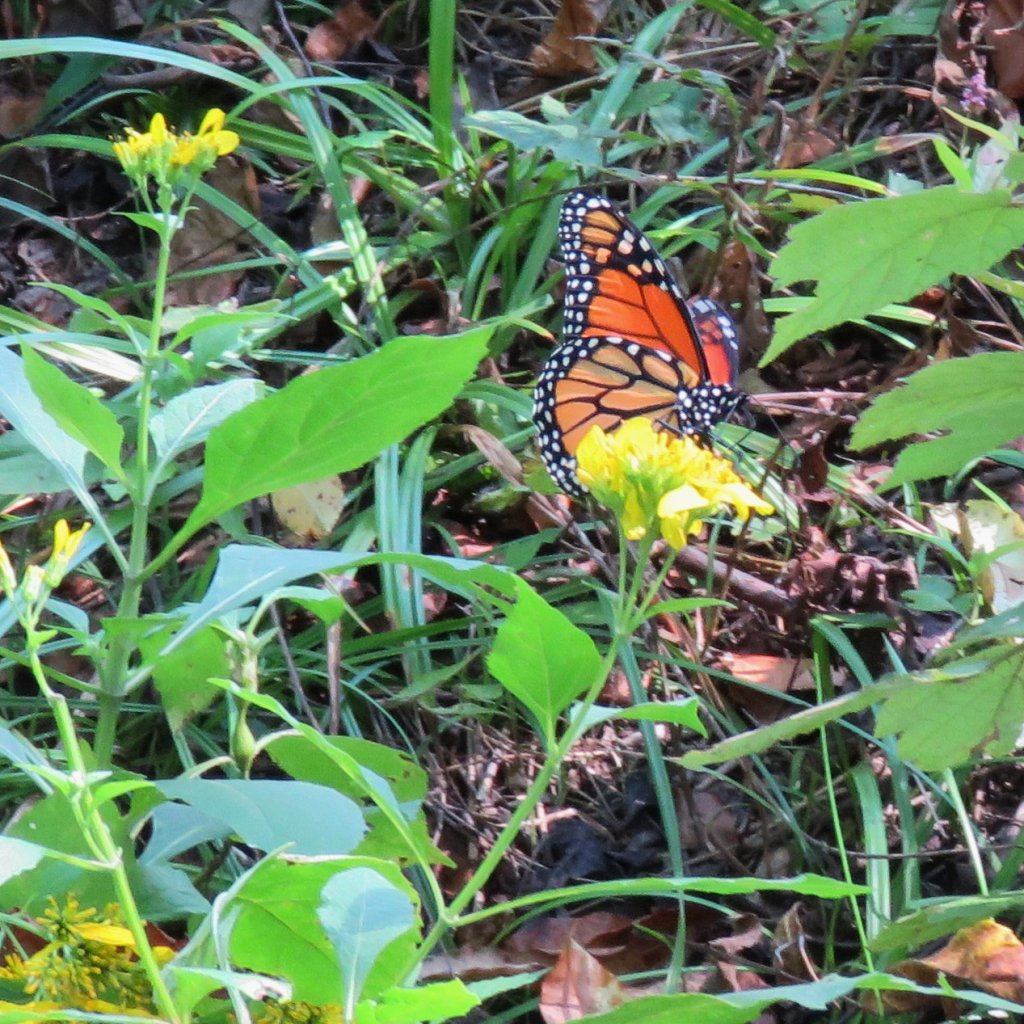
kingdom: Animalia
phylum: Arthropoda
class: Insecta
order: Lepidoptera
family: Nymphalidae
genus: Danaus
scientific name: Danaus plexippus
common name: Monarch
